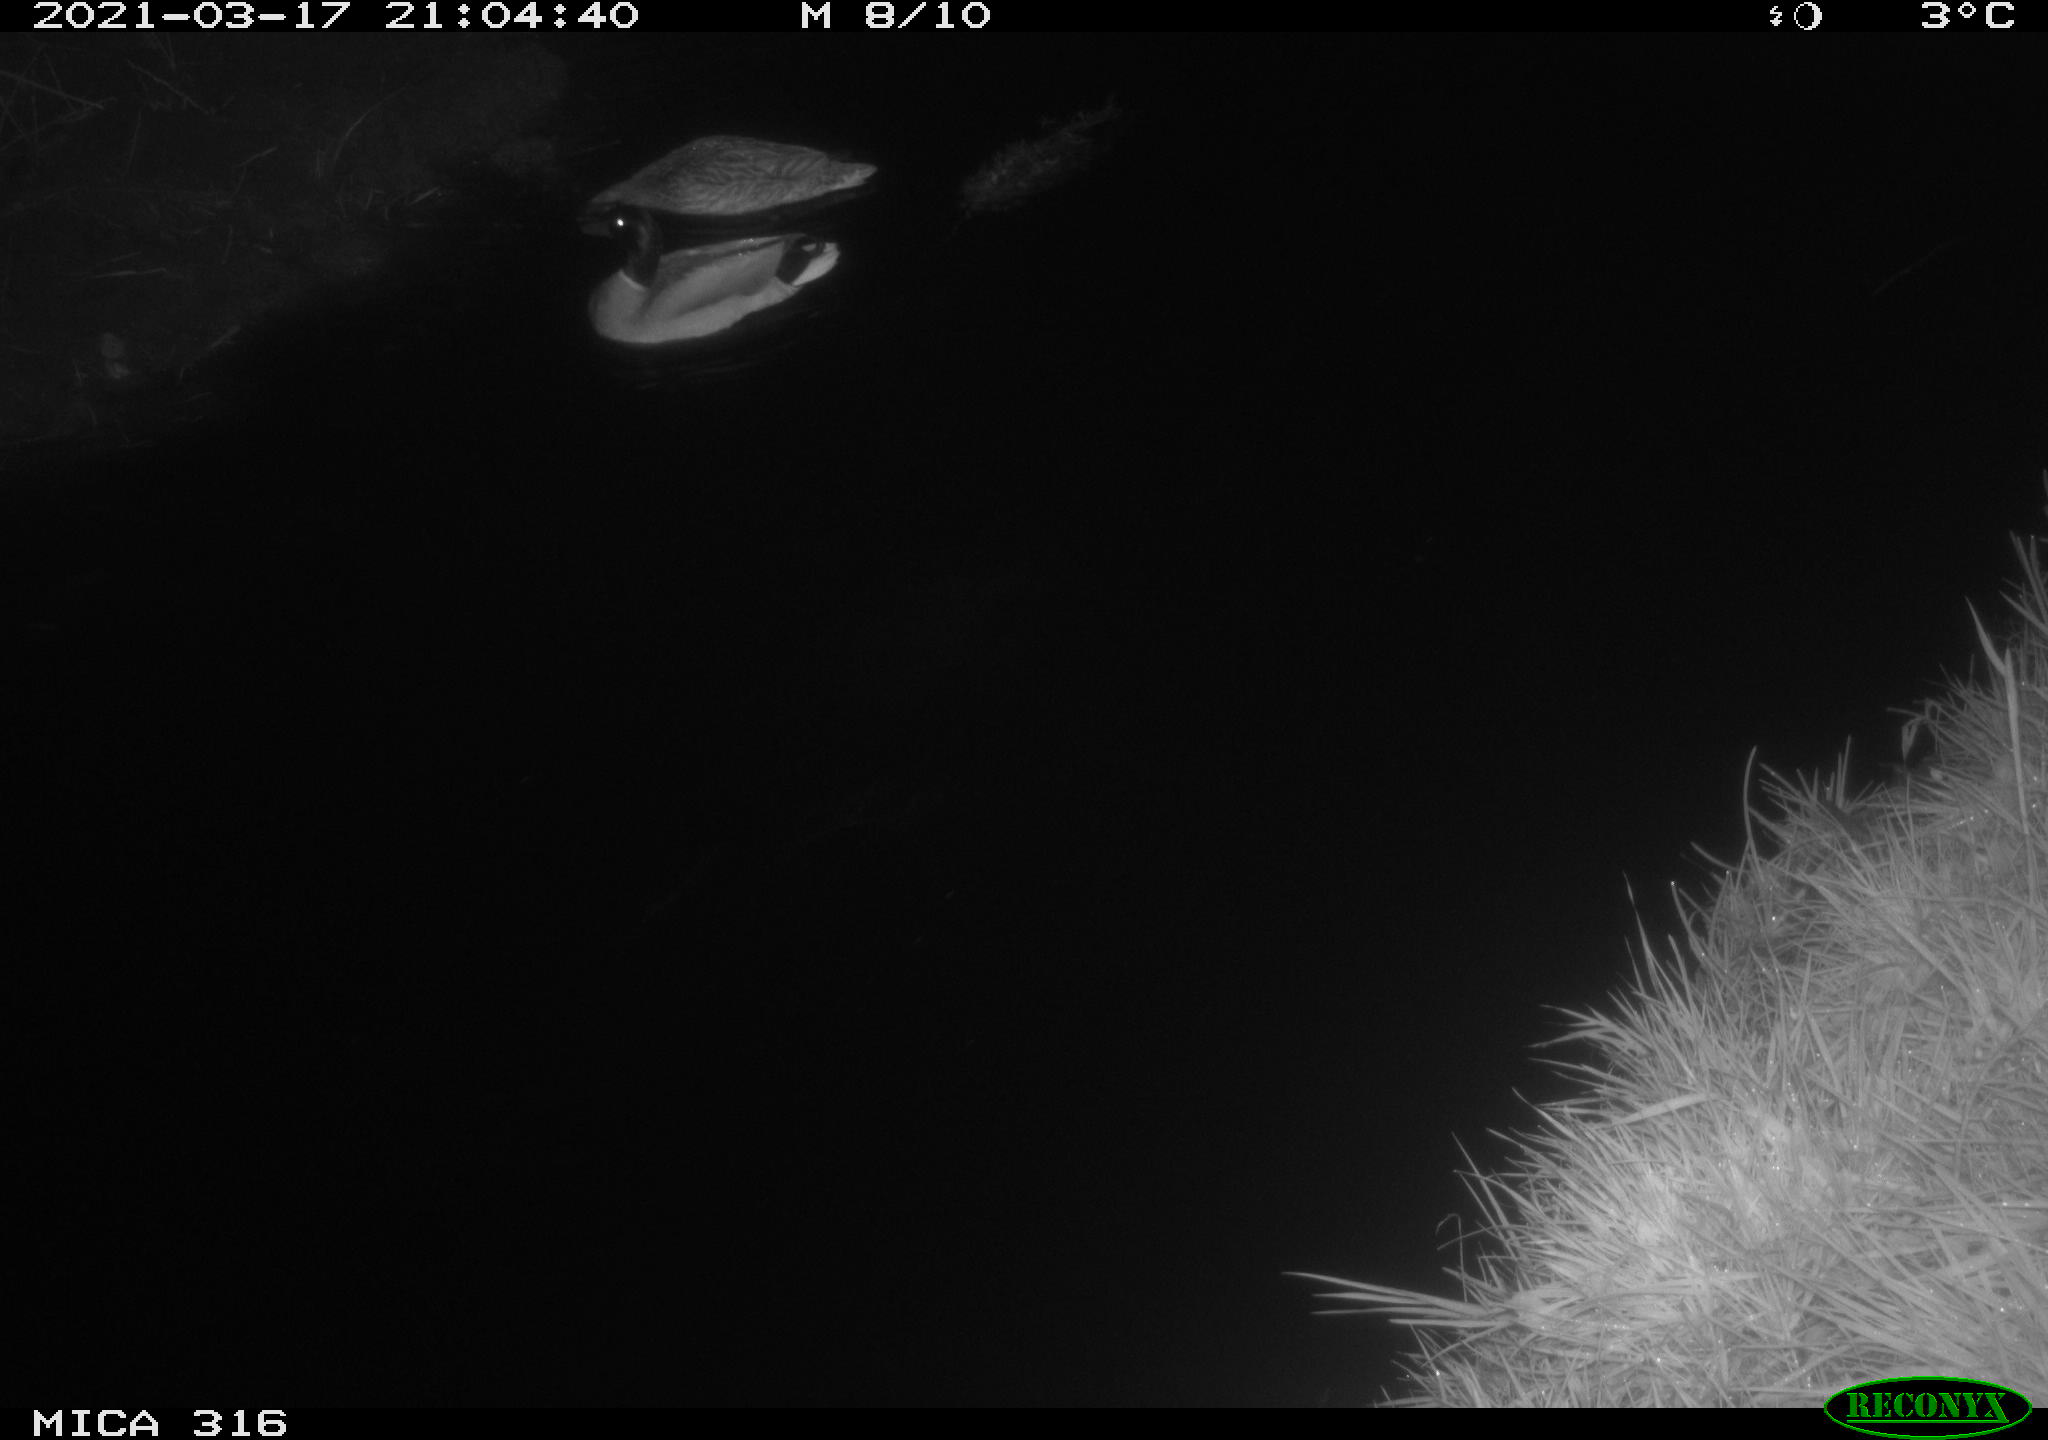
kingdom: Animalia
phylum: Chordata
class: Aves
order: Anseriformes
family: Anatidae
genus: Anas
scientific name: Anas platyrhynchos
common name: Mallard
